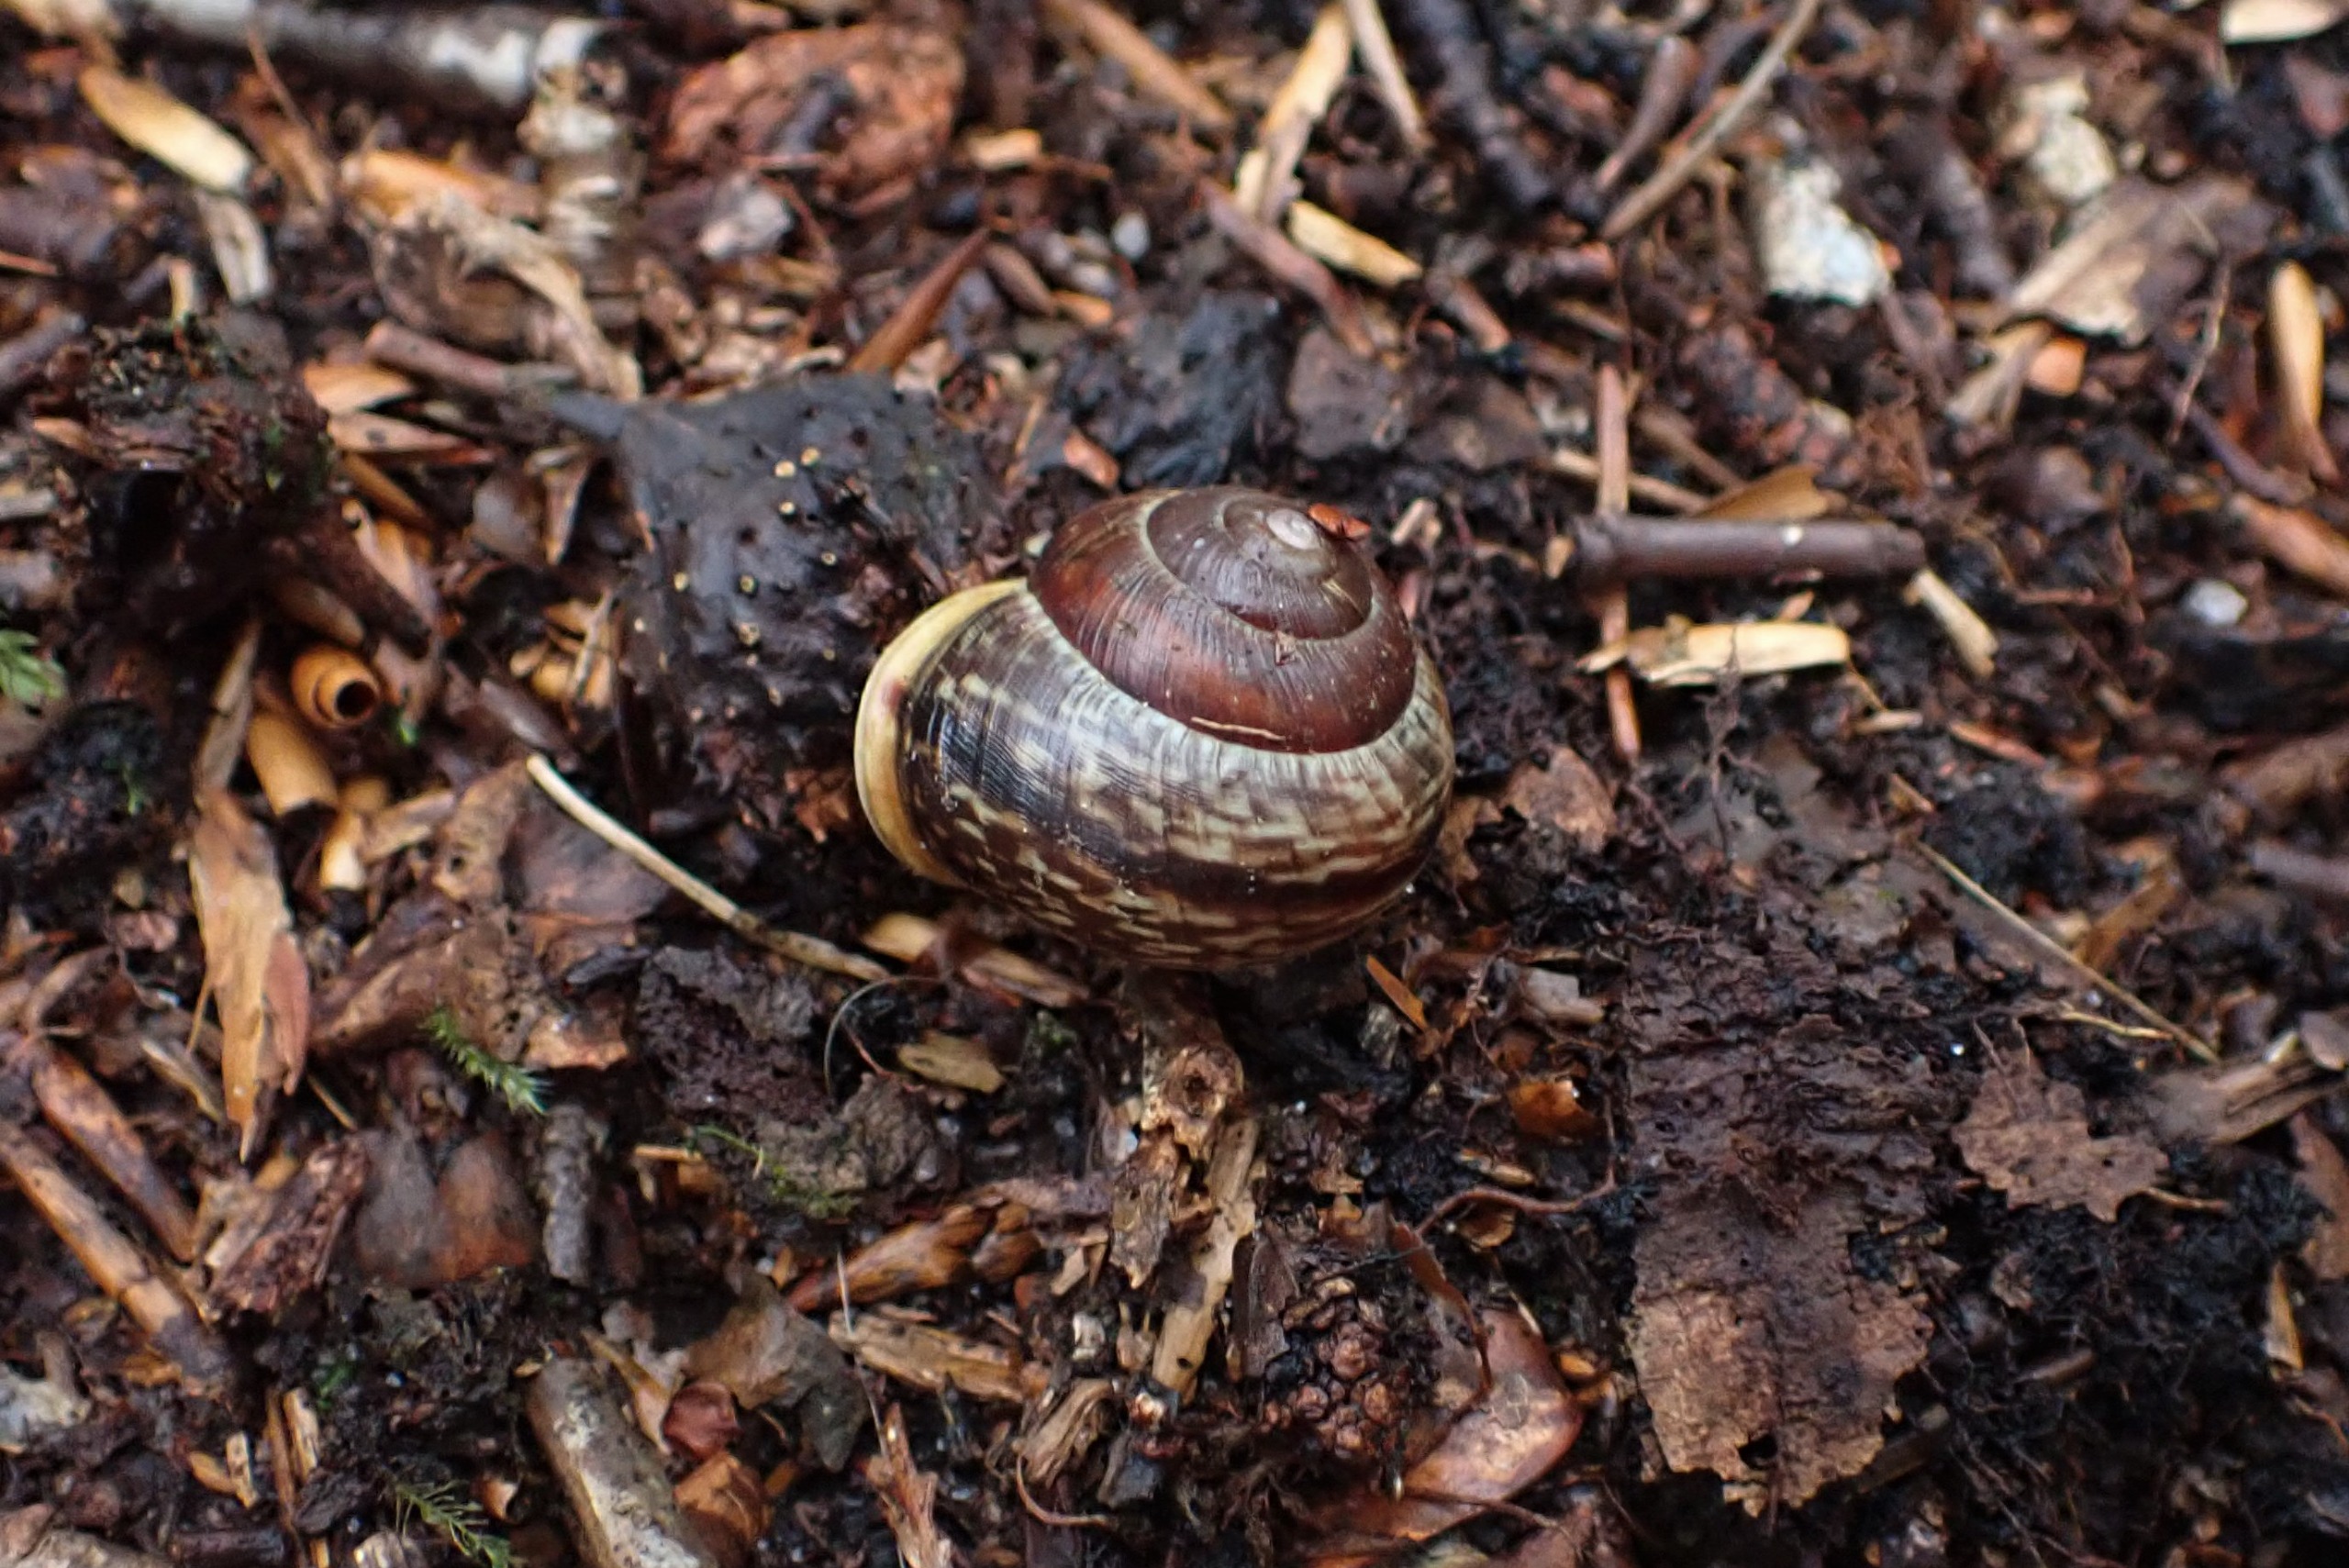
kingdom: Animalia
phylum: Mollusca
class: Gastropoda
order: Stylommatophora
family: Helicidae
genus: Arianta
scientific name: Arianta arbustorum
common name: Kratsnegl
